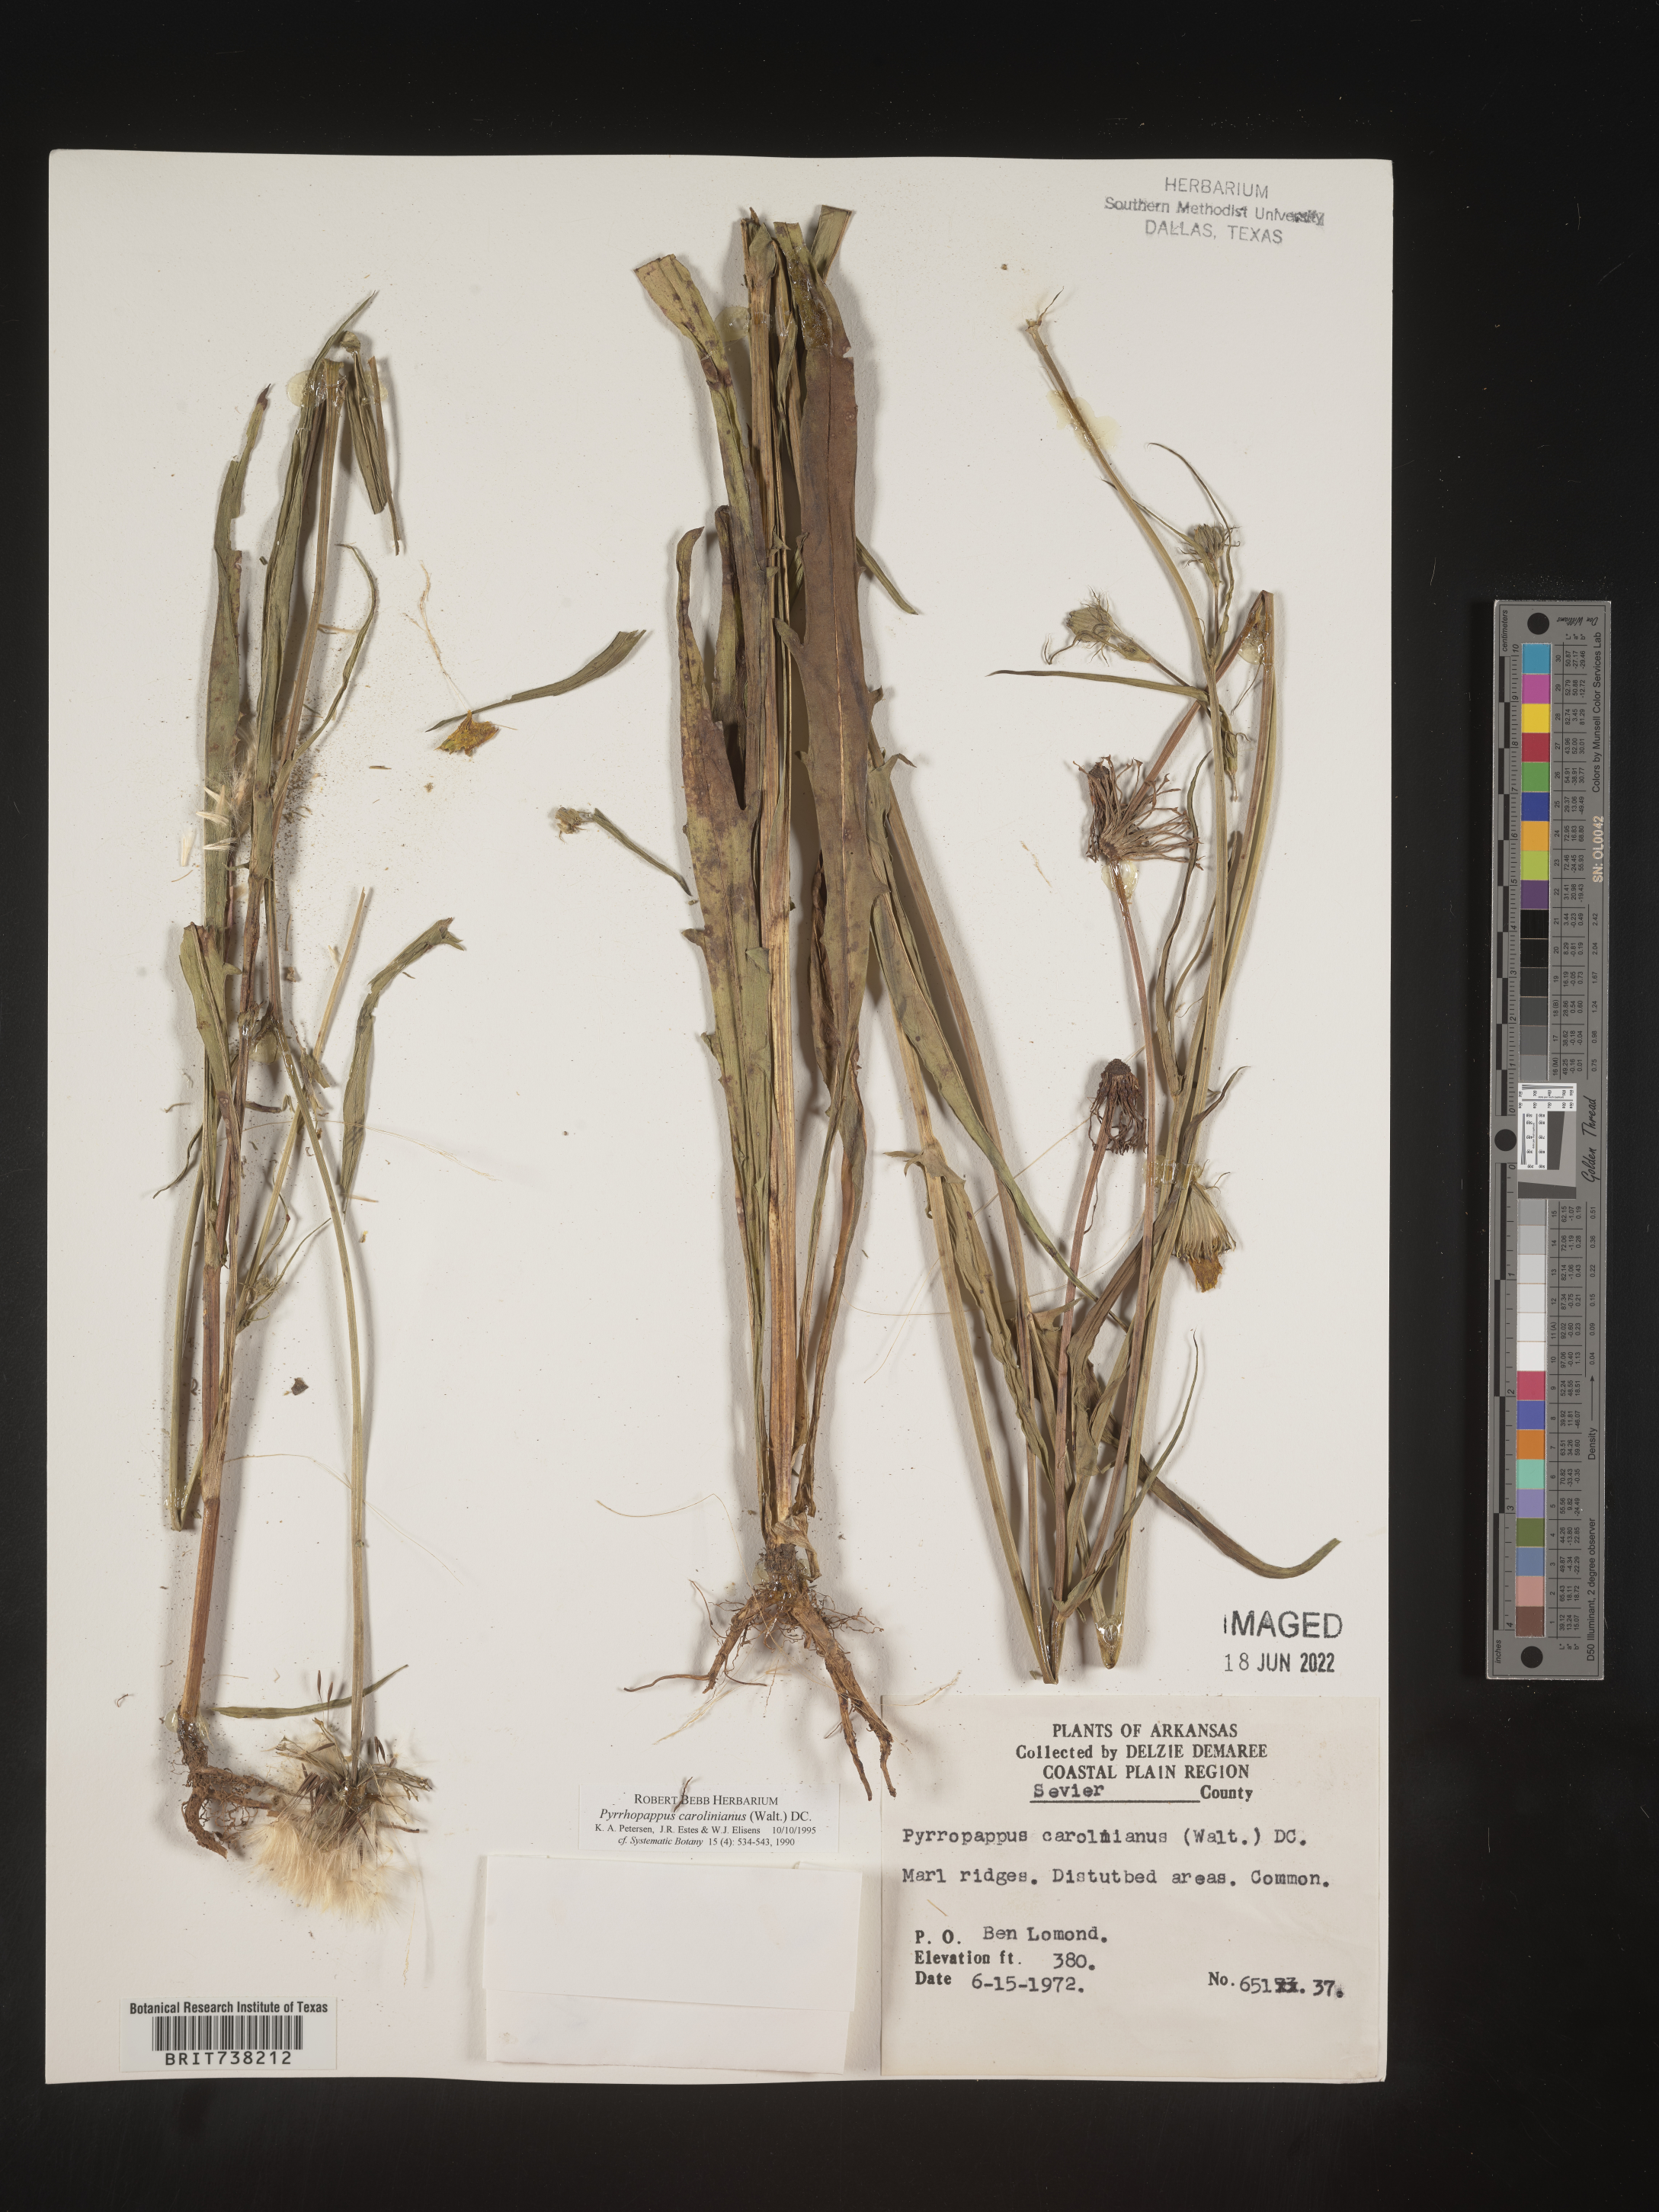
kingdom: Plantae
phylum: Tracheophyta
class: Magnoliopsida
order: Asterales
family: Asteraceae
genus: Pyrrhopappus
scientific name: Pyrrhopappus carolinianus
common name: Carolina desert-chicory
